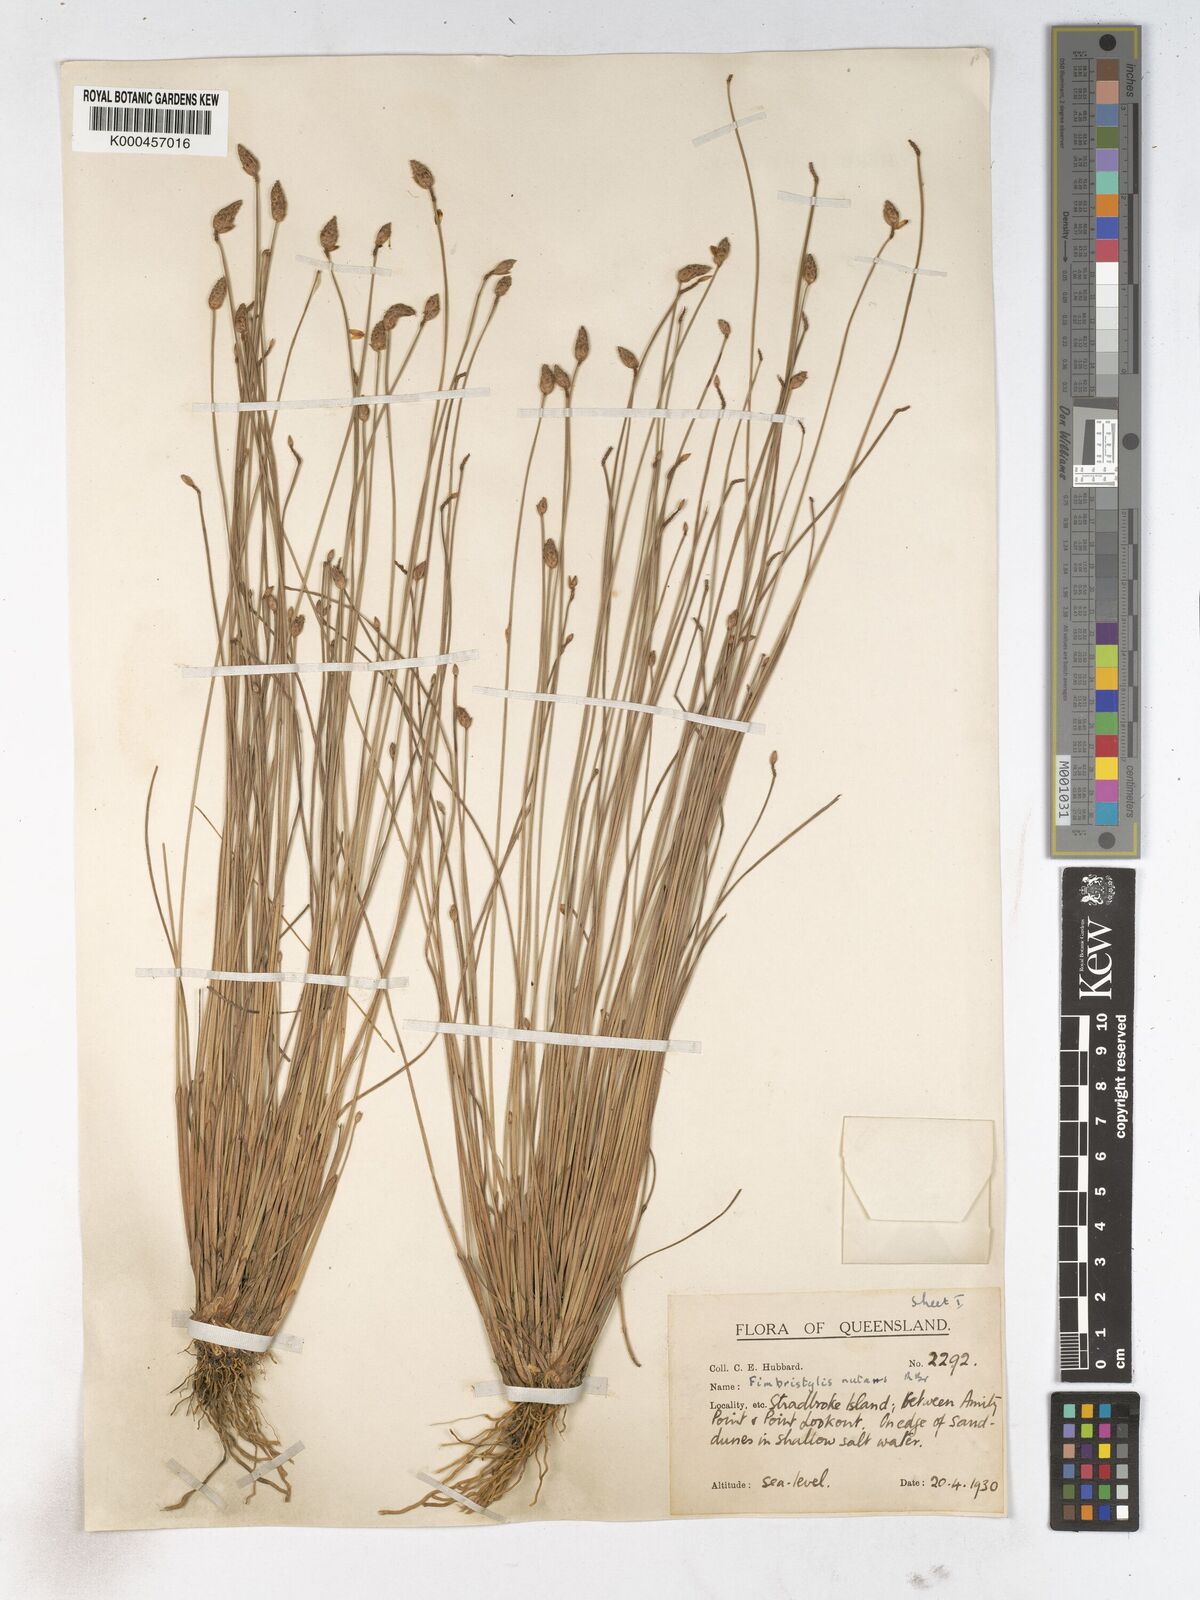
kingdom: Plantae
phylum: Tracheophyta
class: Liliopsida
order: Poales
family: Cyperaceae
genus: Fimbristylis
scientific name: Fimbristylis nutans
